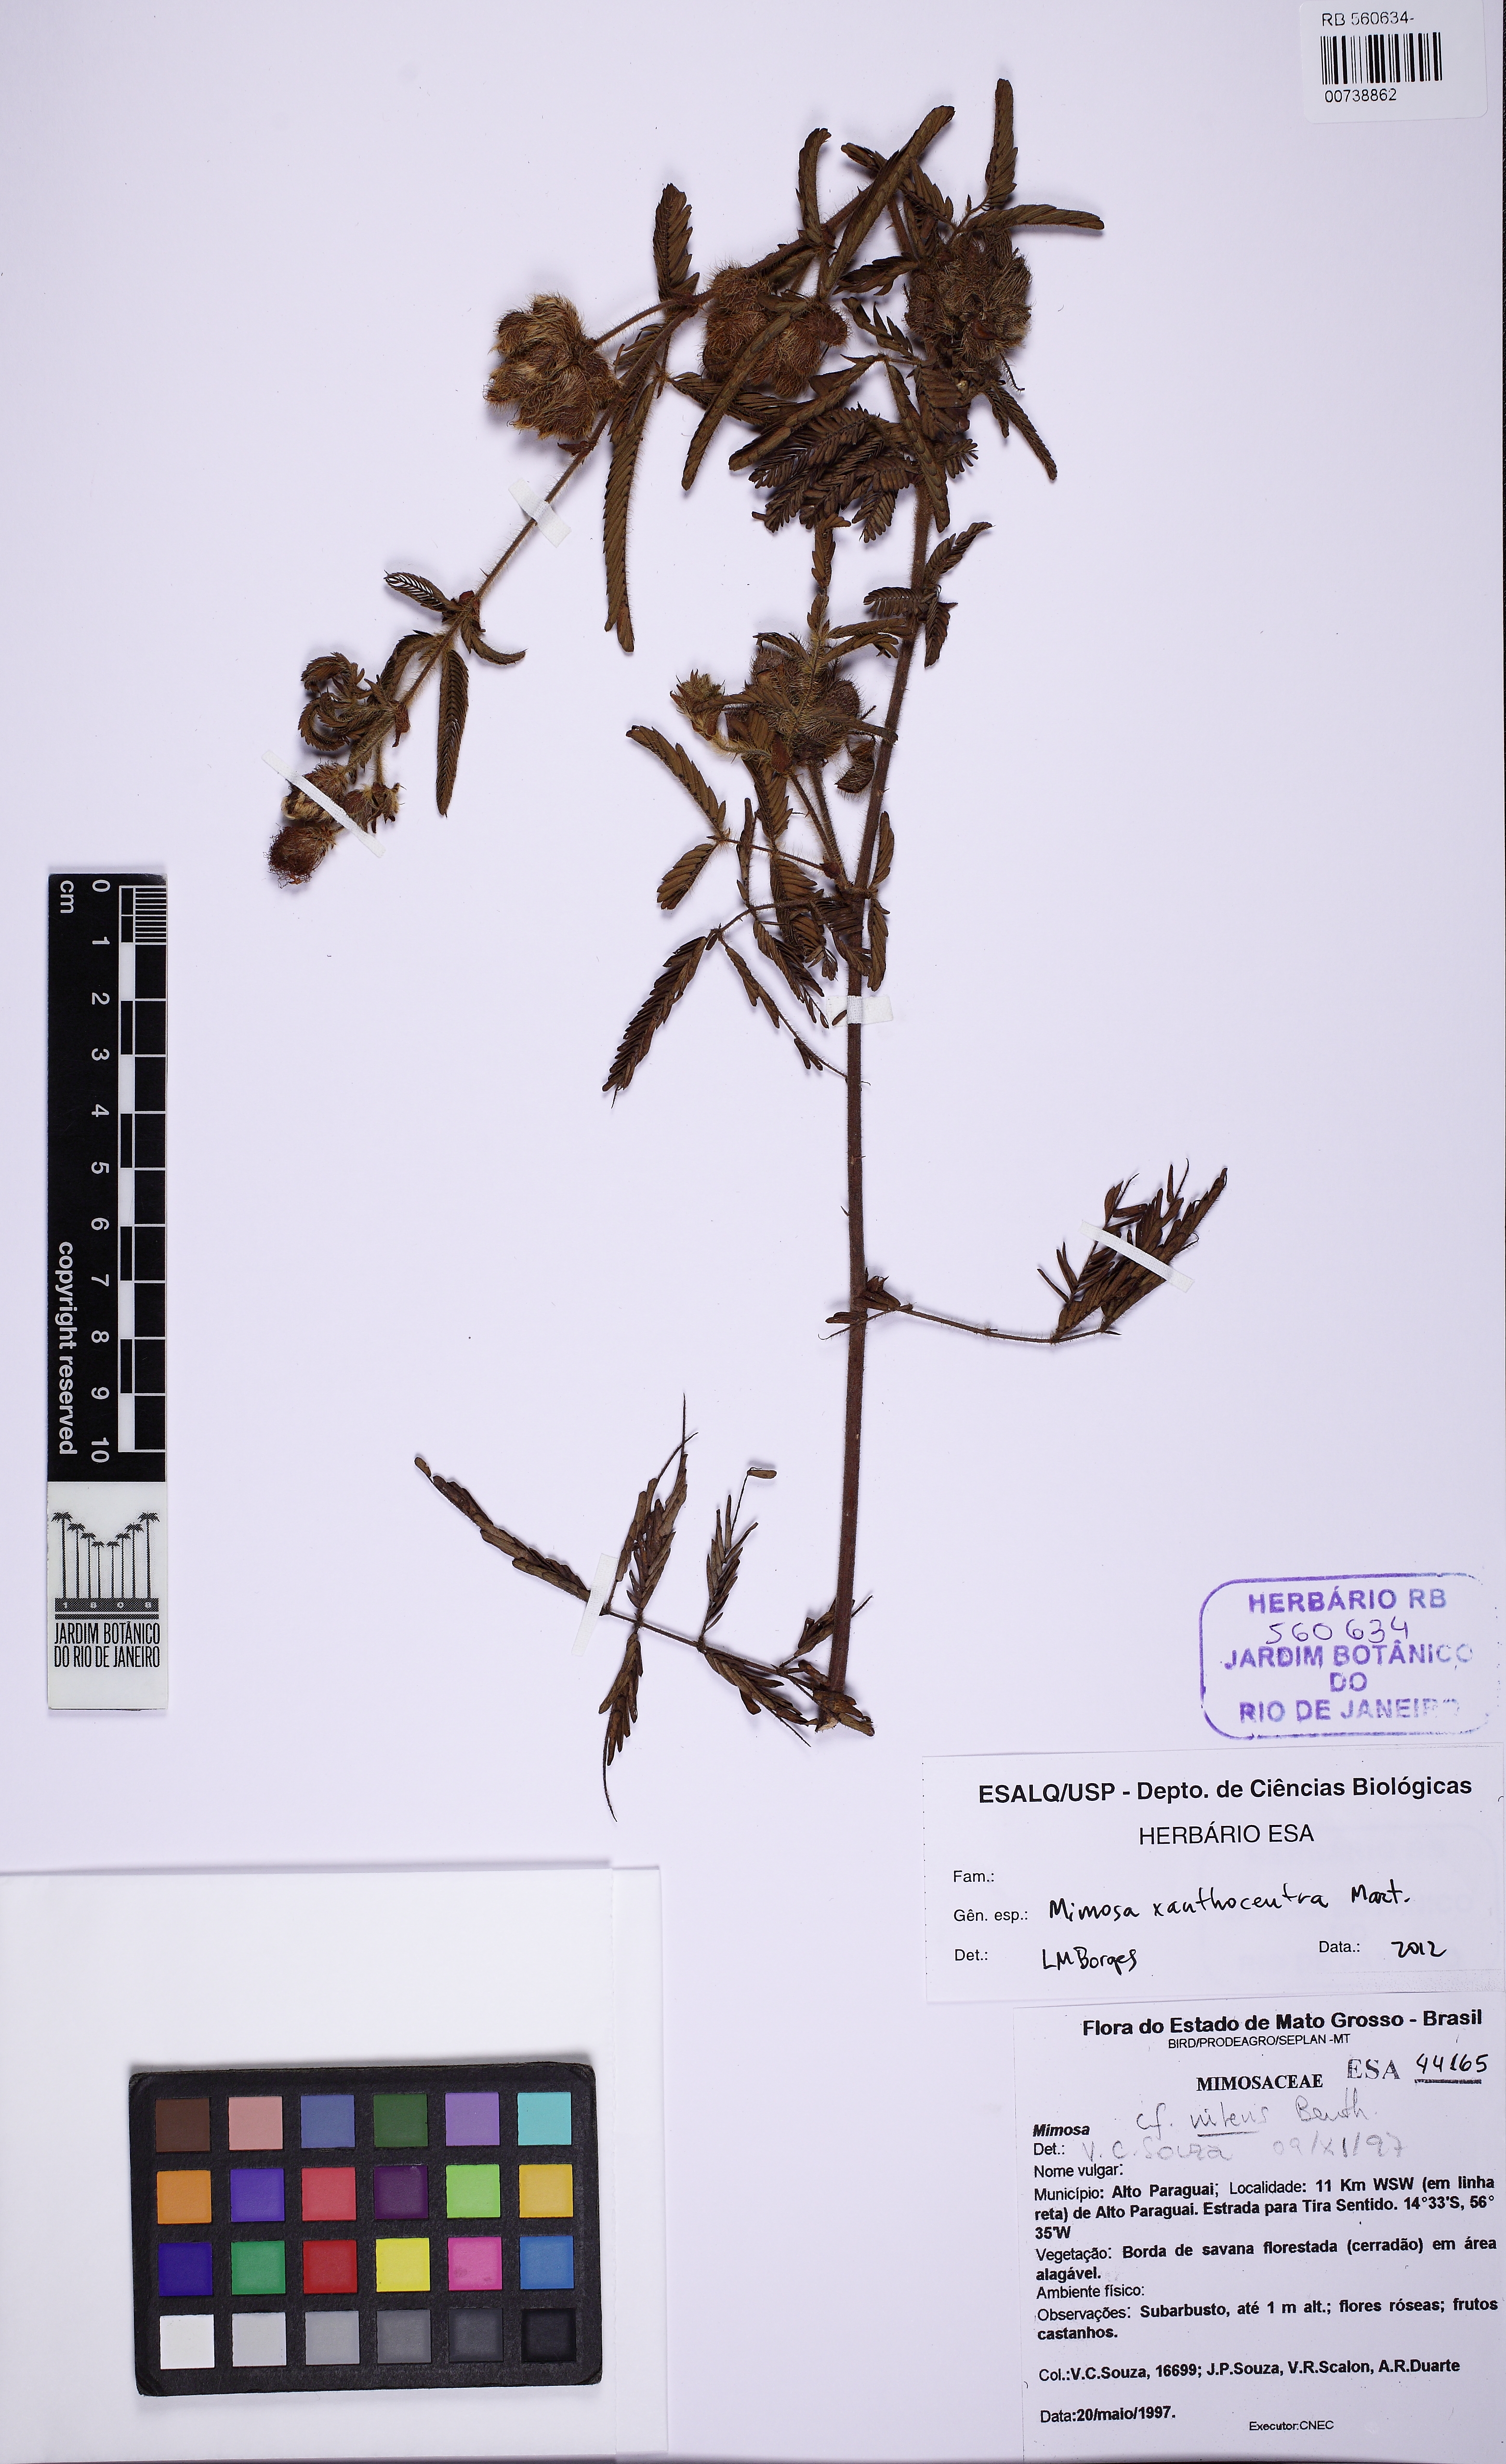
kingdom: Plantae
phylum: Tracheophyta
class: Magnoliopsida
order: Fabales
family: Fabaceae
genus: Mimosa
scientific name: Mimosa xanthocentra
